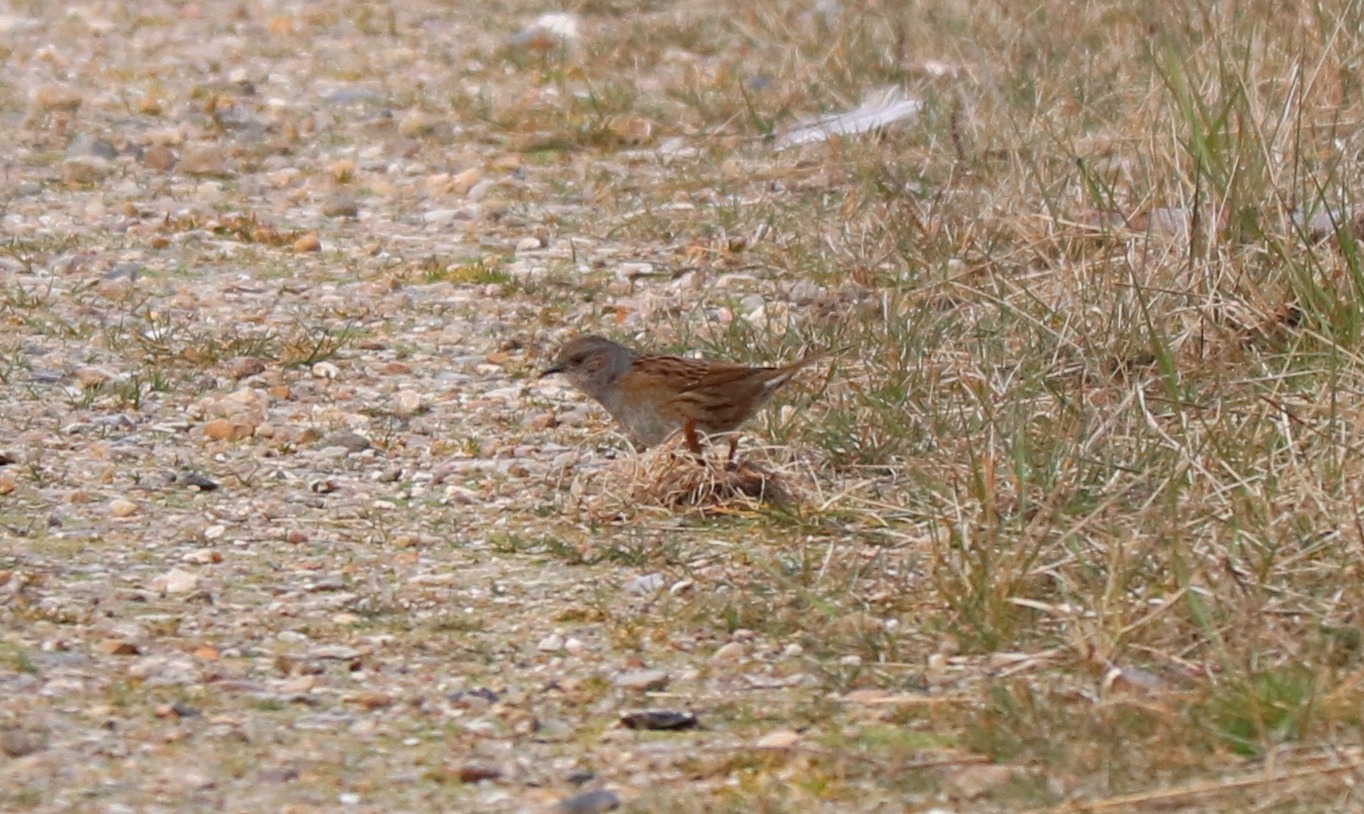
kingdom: Animalia
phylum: Chordata
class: Aves
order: Passeriformes
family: Prunellidae
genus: Prunella
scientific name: Prunella modularis
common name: Jernspurv
